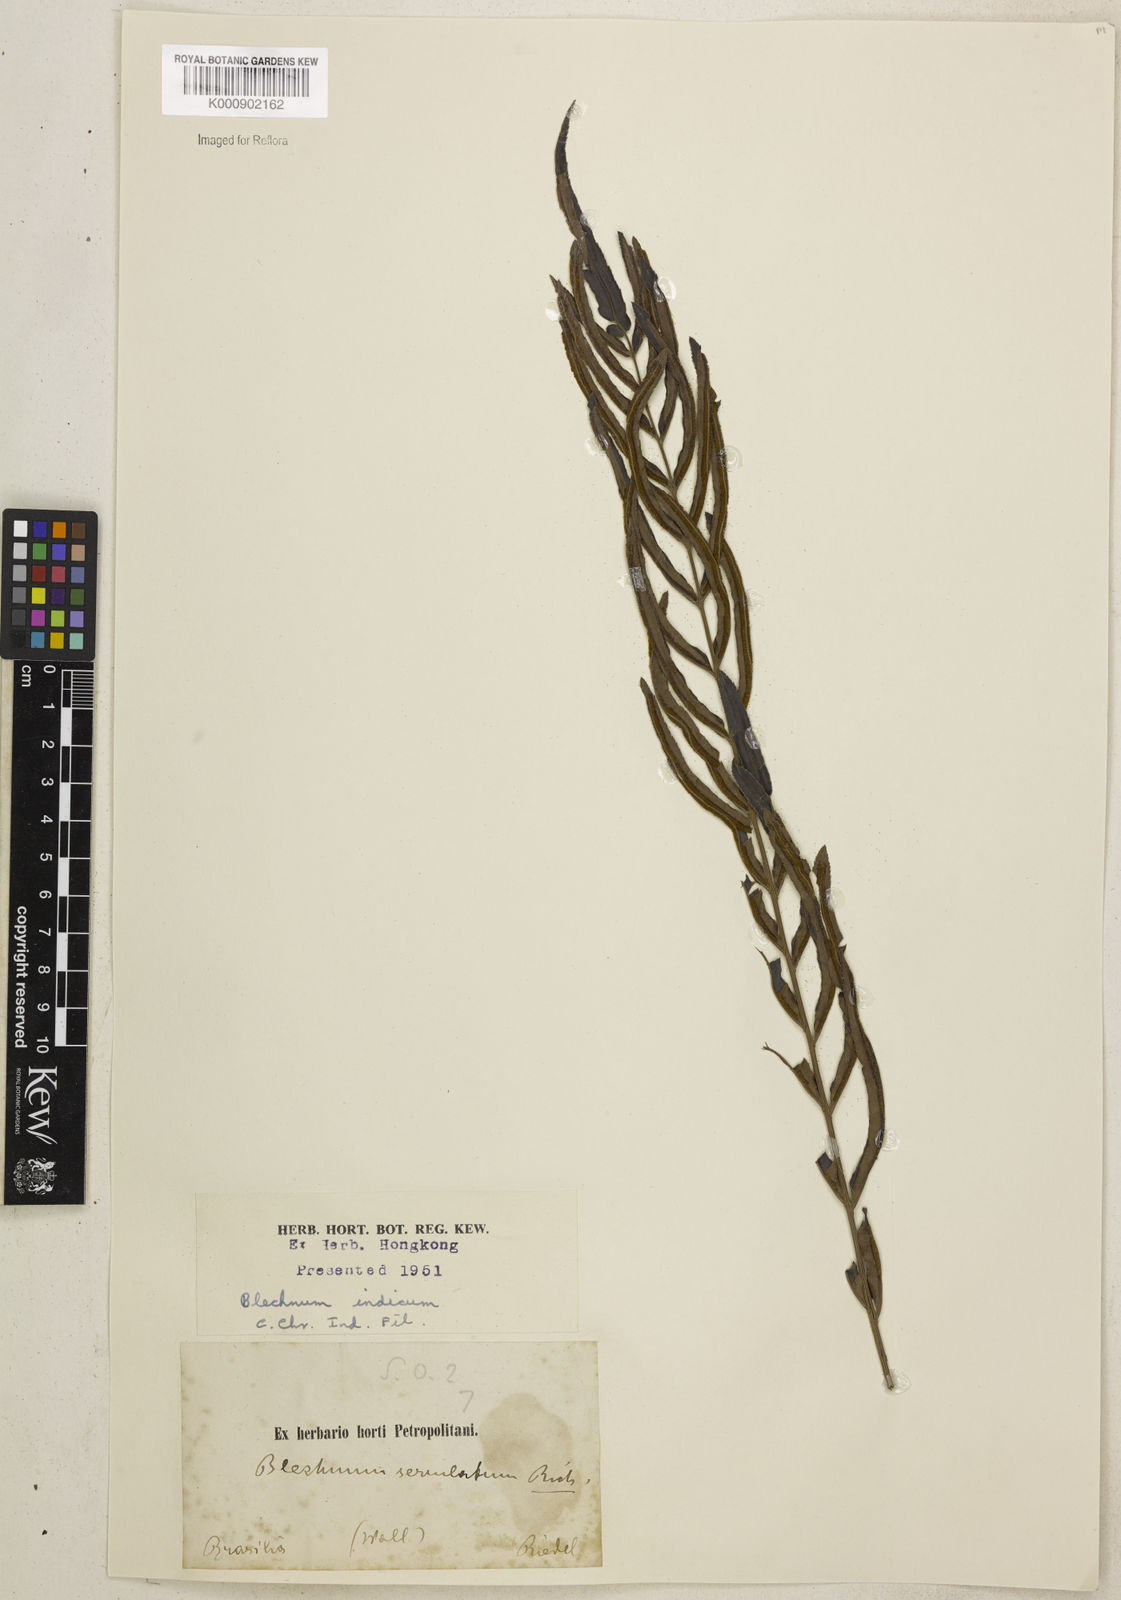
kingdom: Plantae
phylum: Tracheophyta
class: Polypodiopsida
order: Polypodiales
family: Blechnaceae
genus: Telmatoblechnum
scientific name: Telmatoblechnum serrulatum
